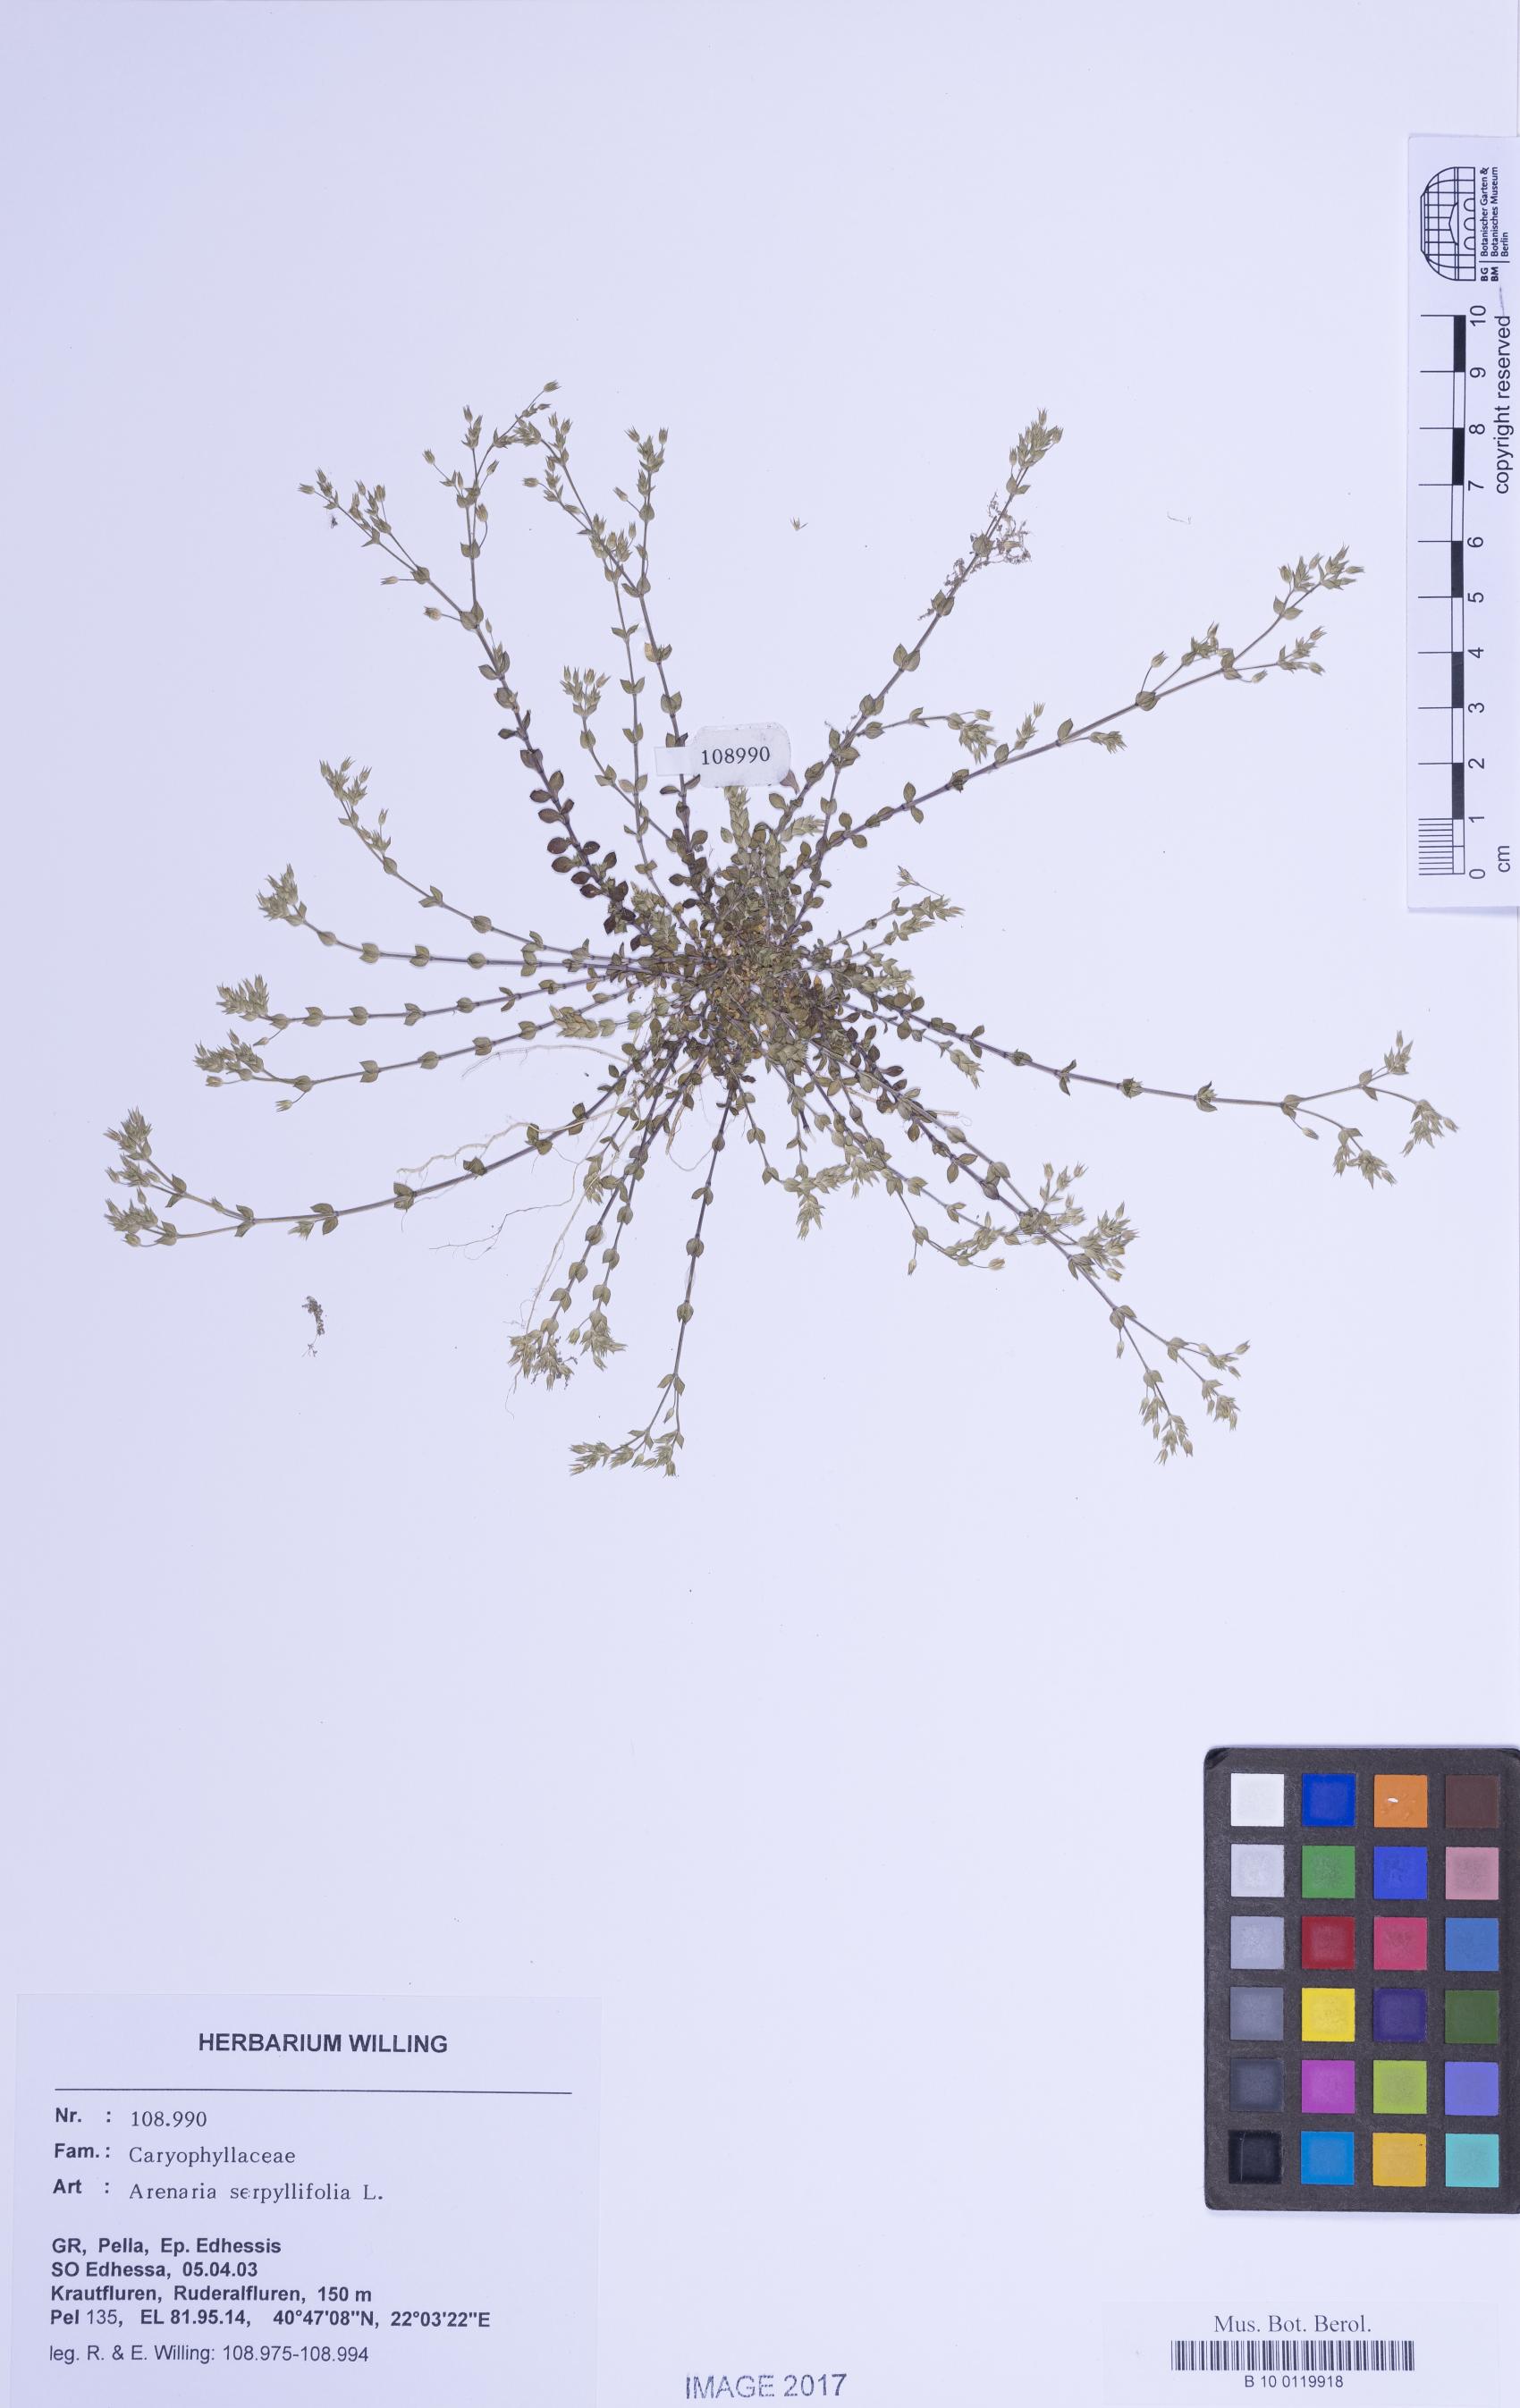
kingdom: Plantae
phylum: Tracheophyta
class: Magnoliopsida
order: Caryophyllales
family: Caryophyllaceae
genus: Arenaria
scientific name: Arenaria serpyllifolia
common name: Thyme-leaved sandwort
